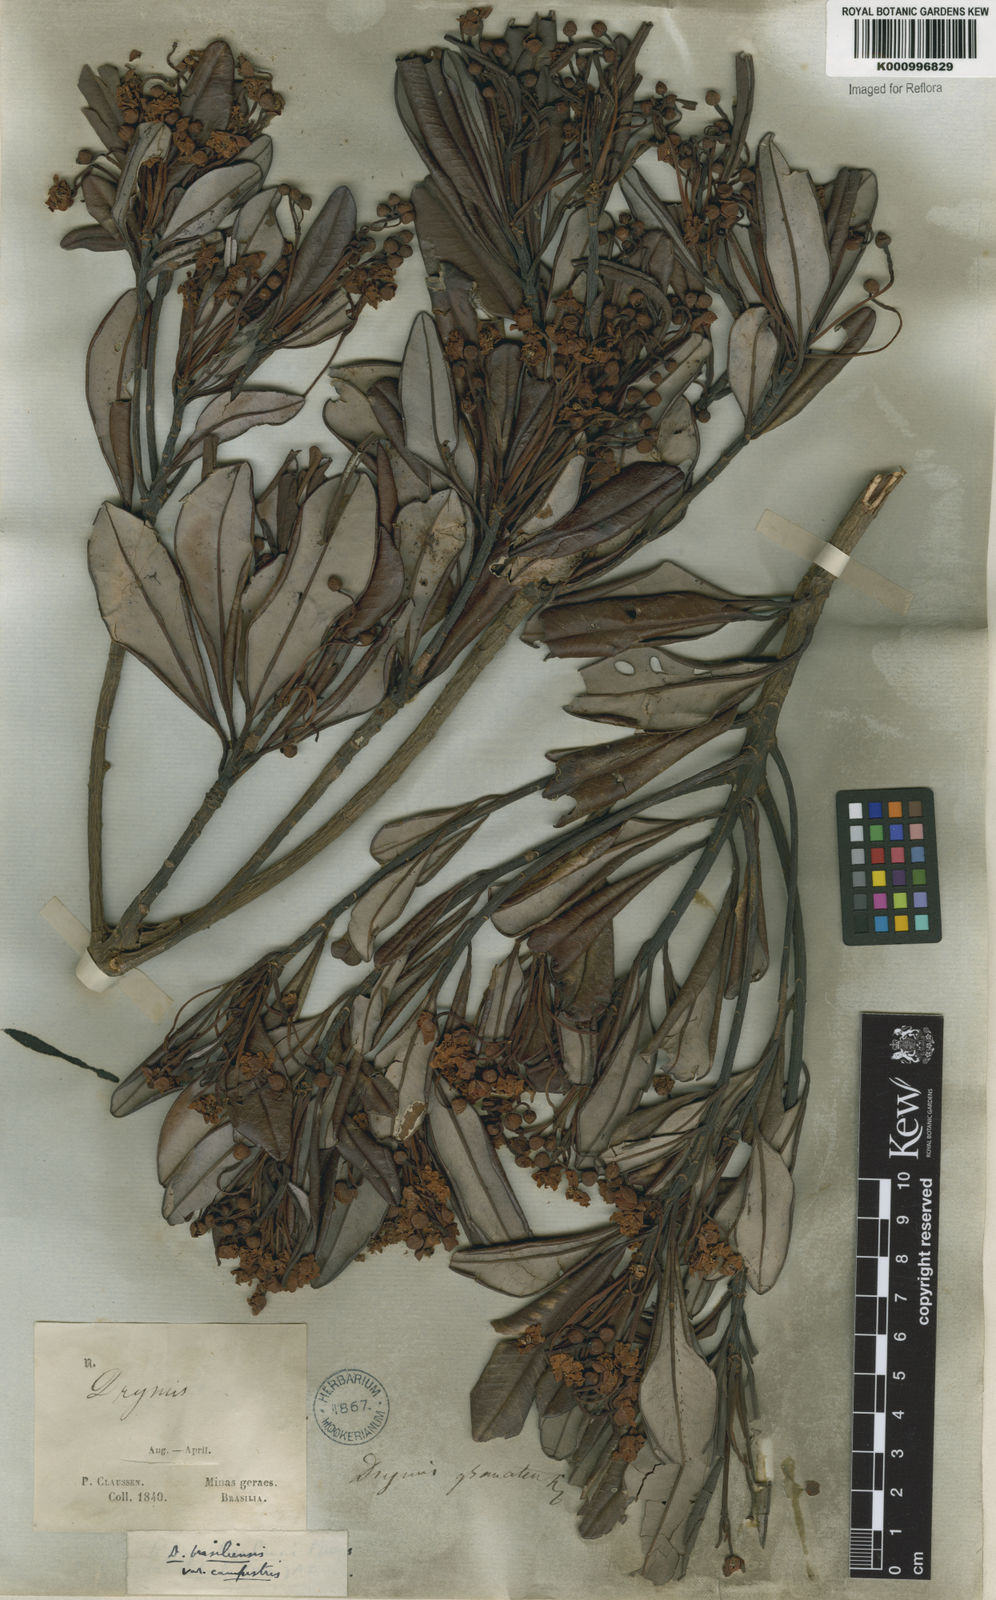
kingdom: Plantae
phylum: Tracheophyta
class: Magnoliopsida
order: Canellales
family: Winteraceae
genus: Drimys
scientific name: Drimys brasiliensis
